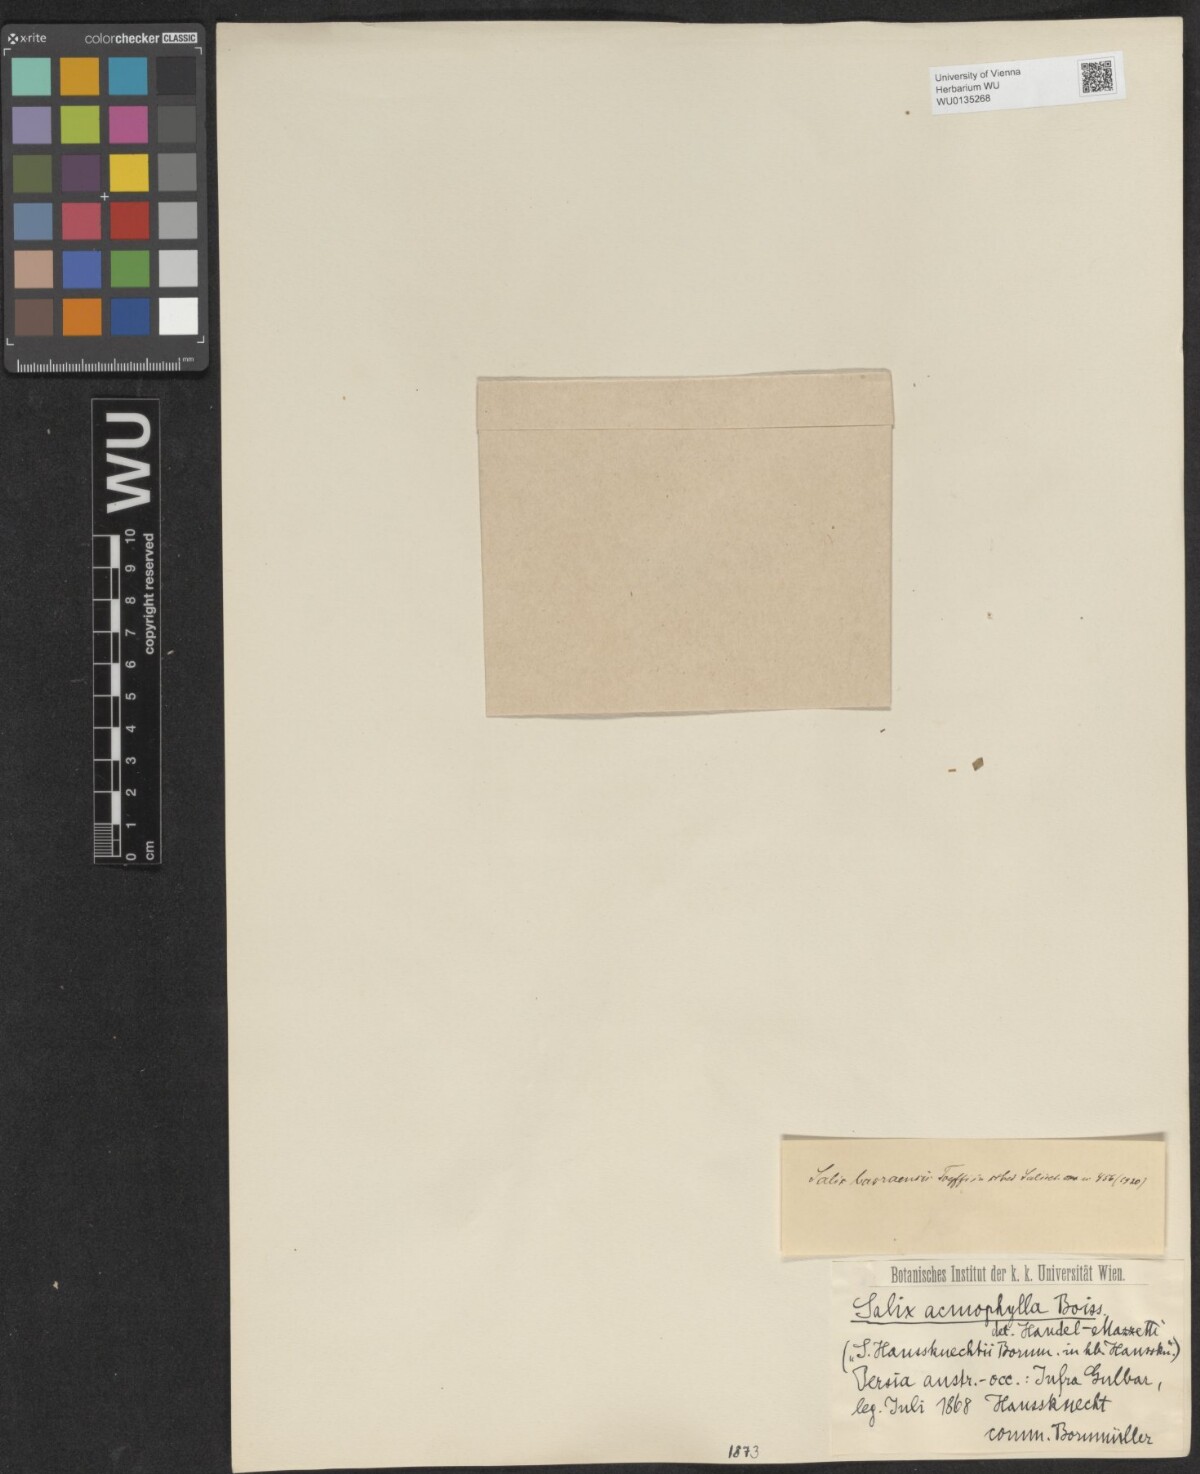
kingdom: Plantae
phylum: Tracheophyta
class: Magnoliopsida
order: Malpighiales
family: Salicaceae
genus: Salix
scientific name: Salix acmophylla
